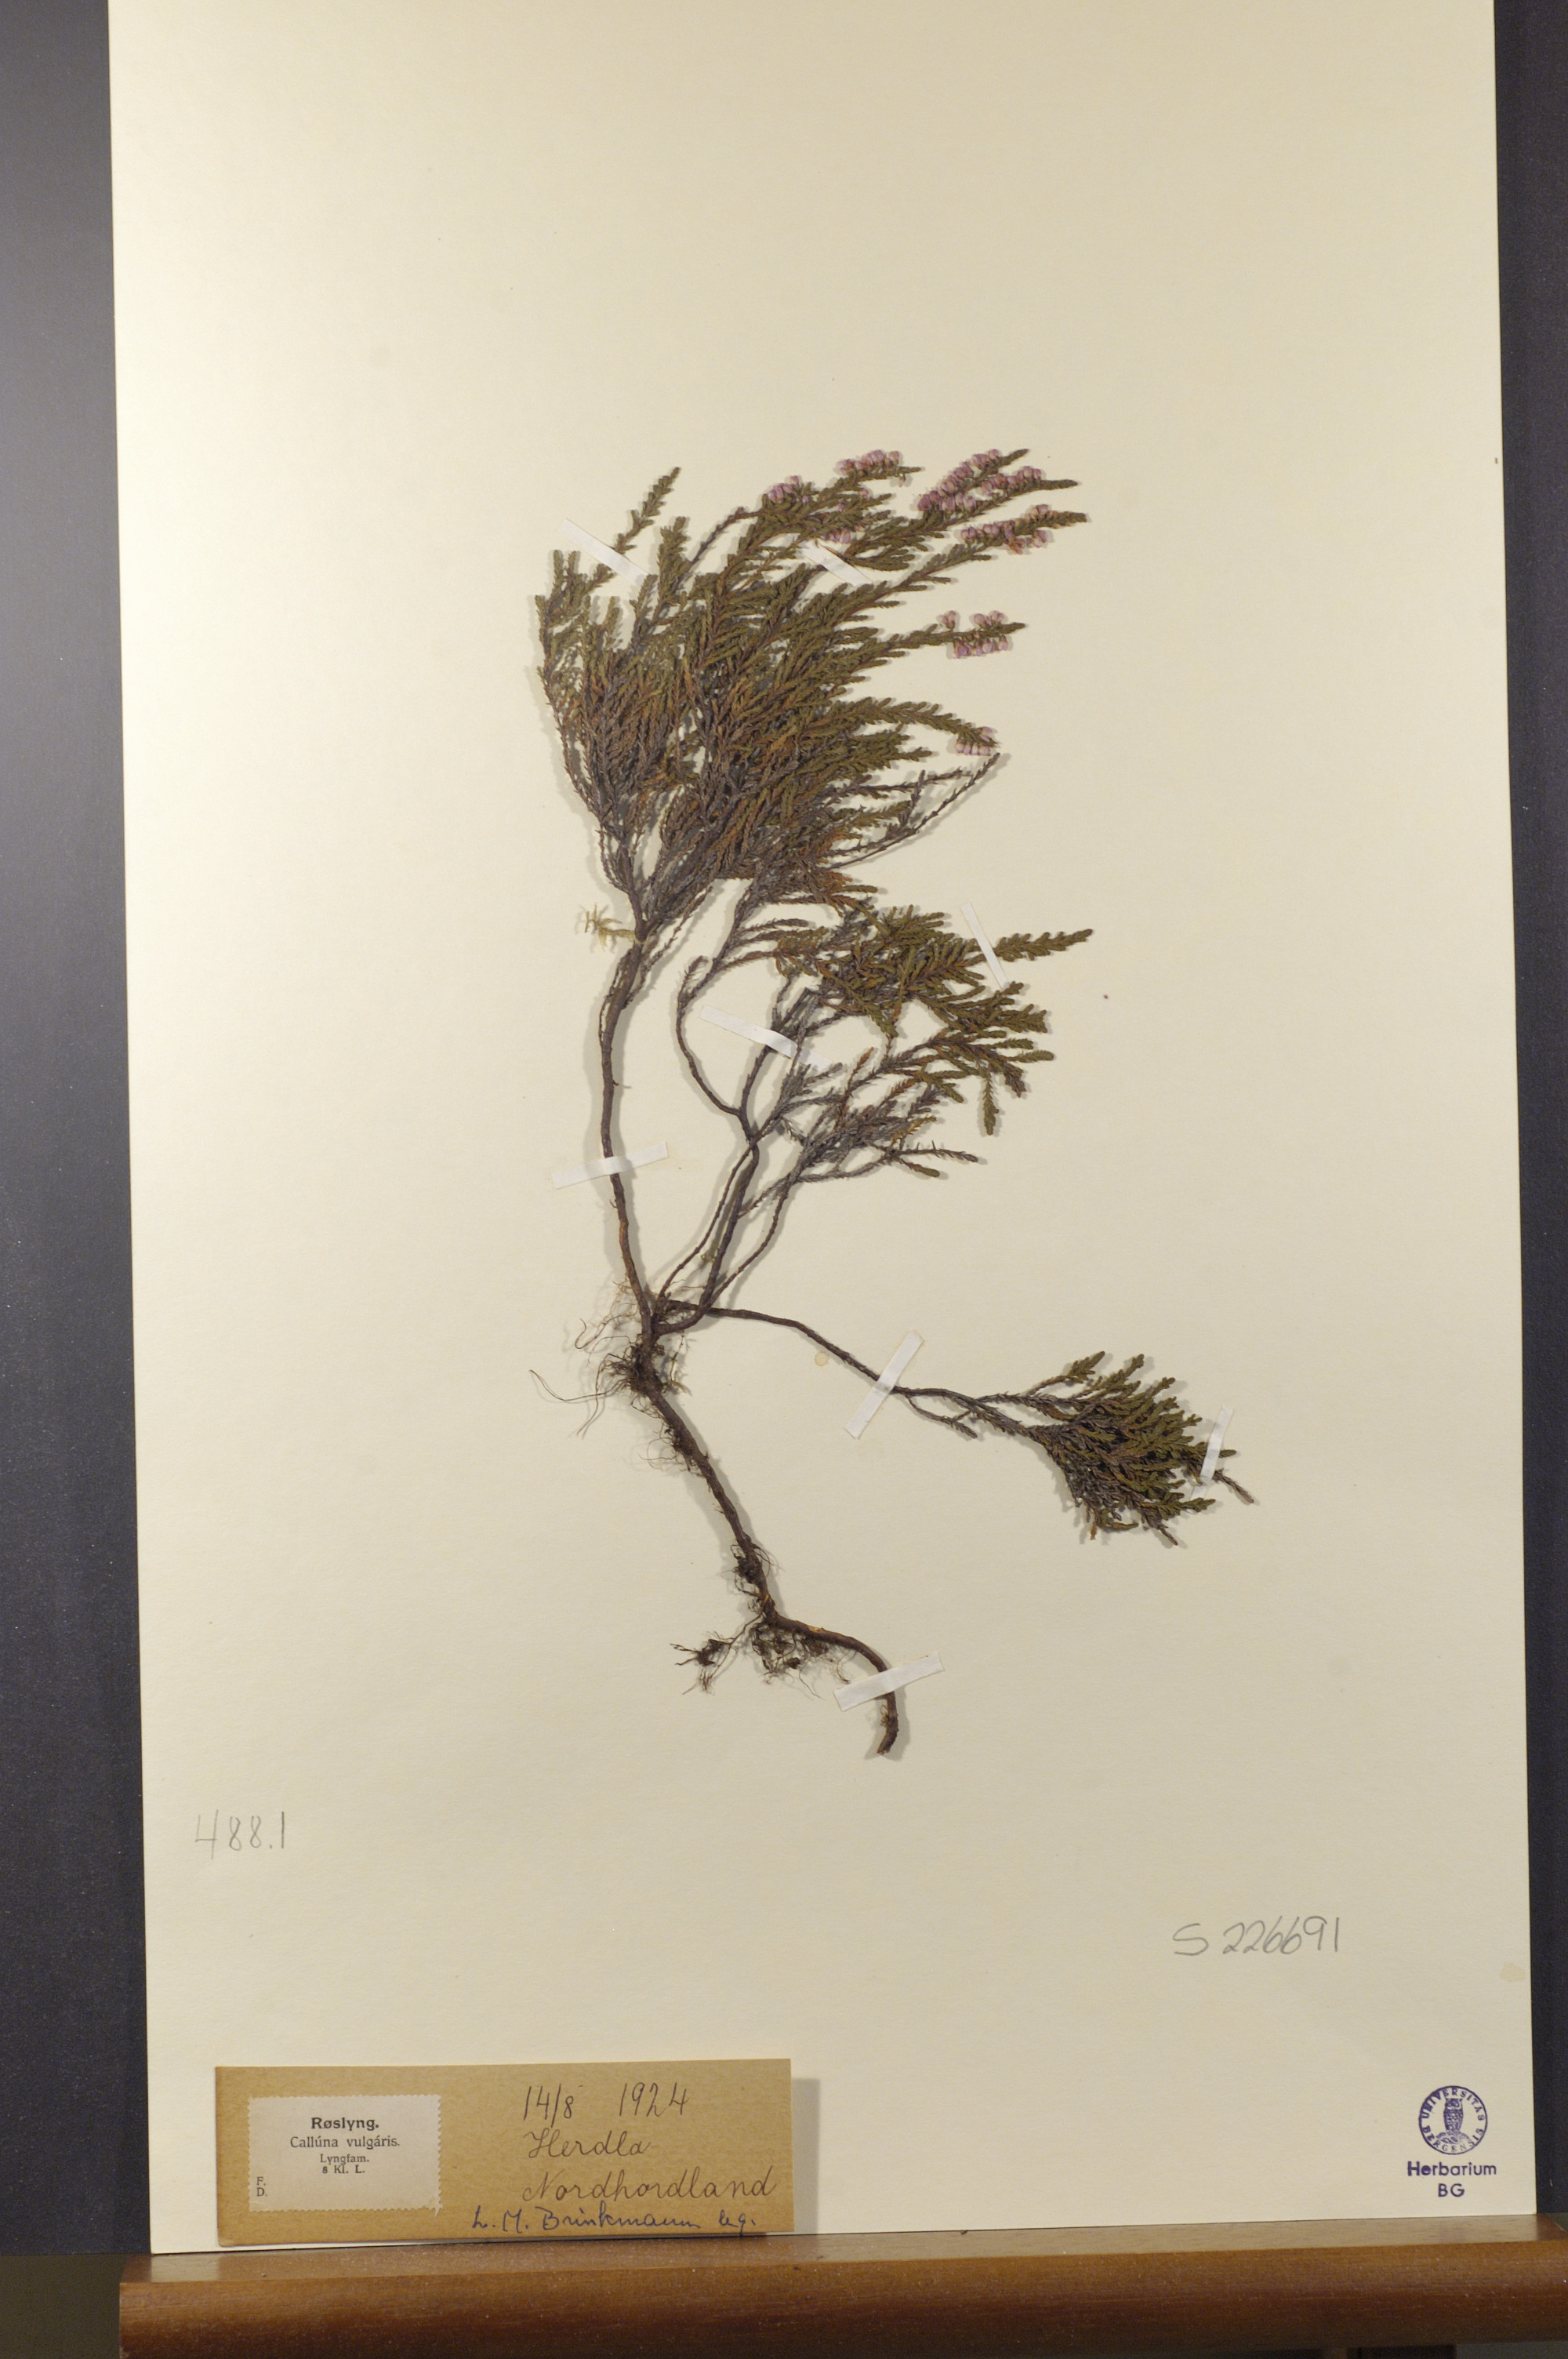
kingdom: Plantae
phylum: Tracheophyta
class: Magnoliopsida
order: Ericales
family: Ericaceae
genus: Calluna
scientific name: Calluna vulgaris
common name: Heather
